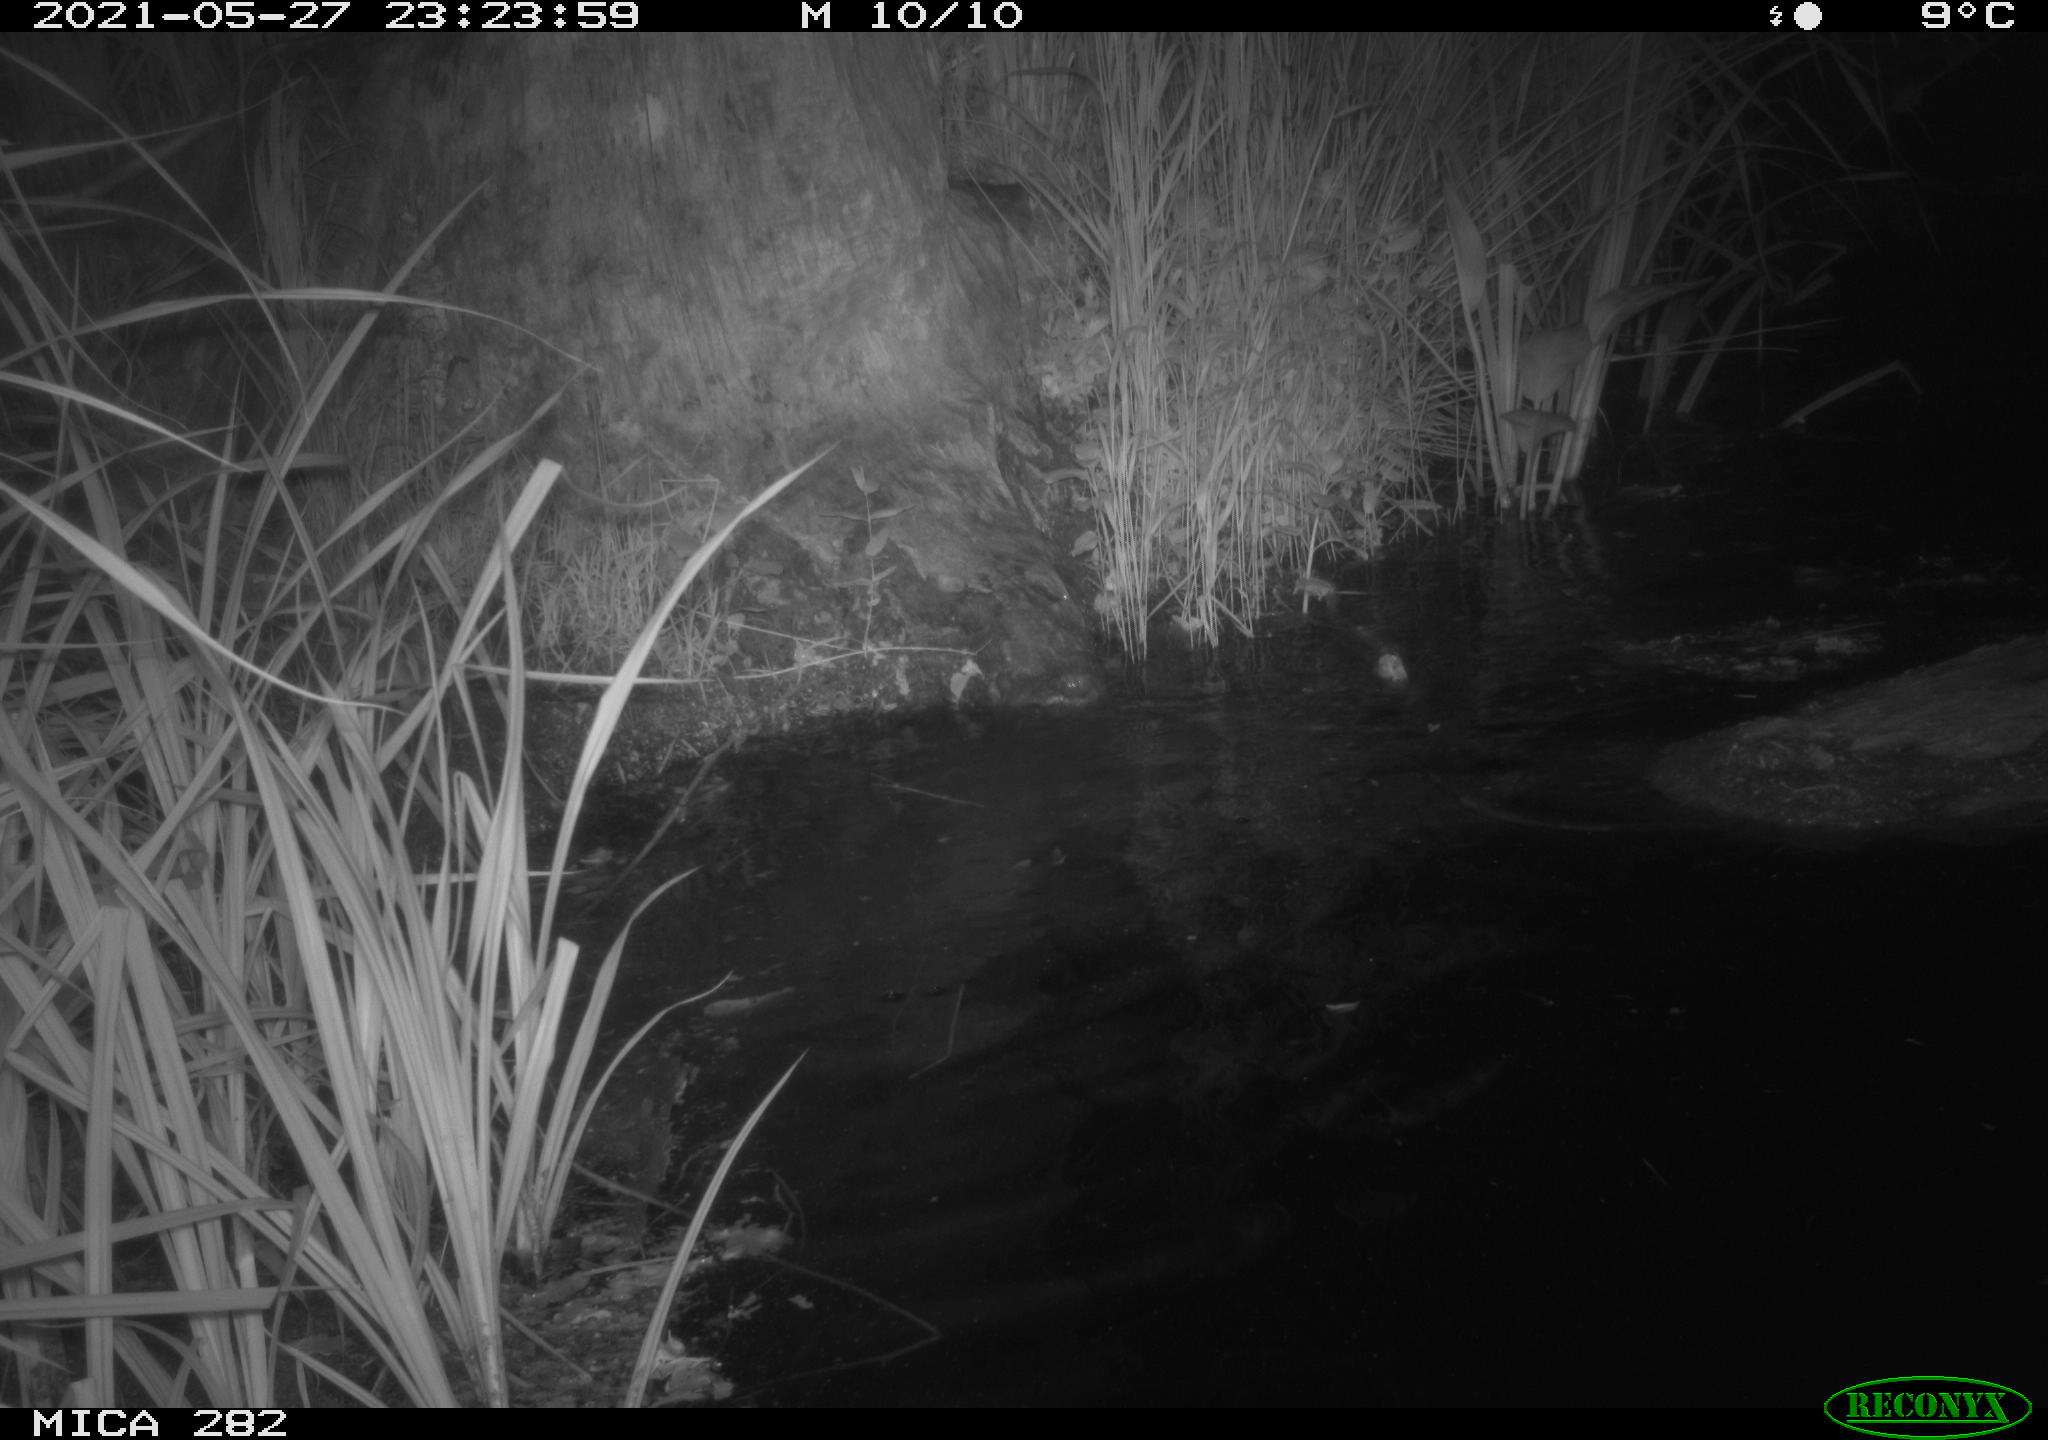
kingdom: Animalia
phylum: Chordata
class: Mammalia
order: Rodentia
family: Castoridae
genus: Castor
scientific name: Castor fiber
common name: Eurasian beaver
